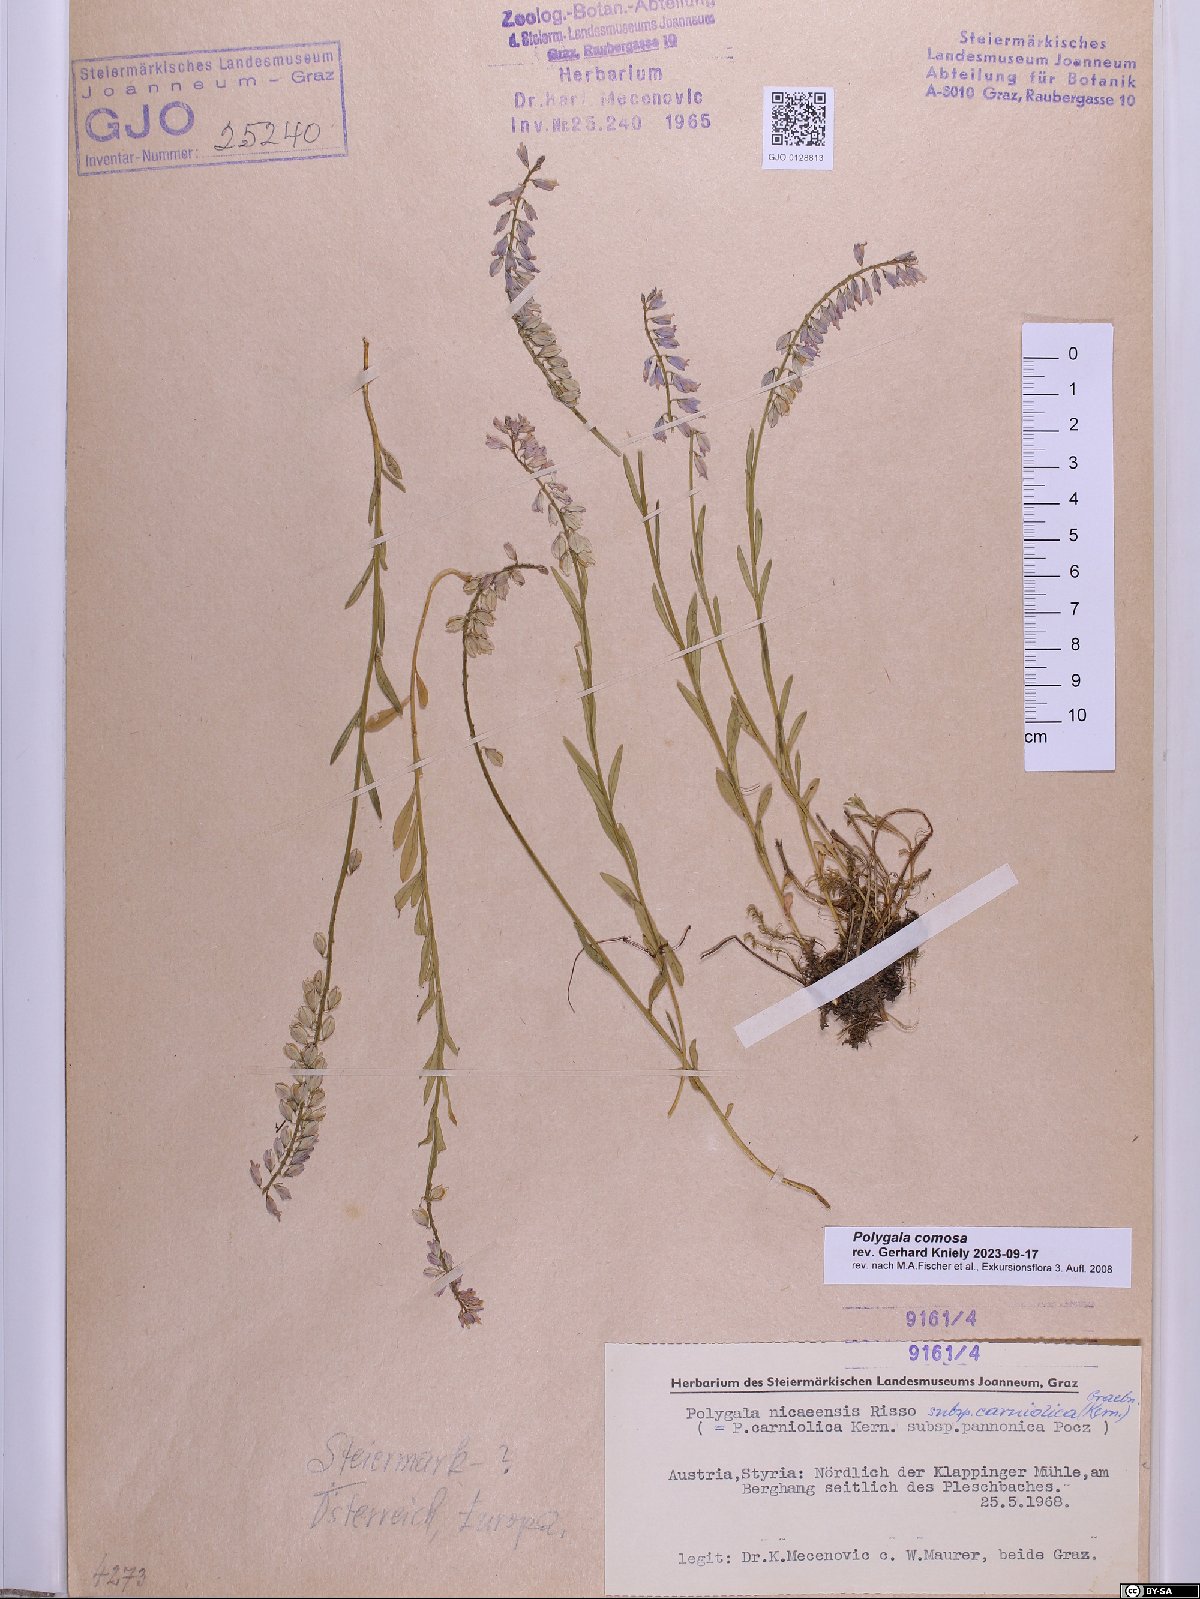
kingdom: Plantae
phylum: Tracheophyta
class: Magnoliopsida
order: Fabales
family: Polygalaceae
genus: Polygala
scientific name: Polygala comosa
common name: Tufted milkwort
